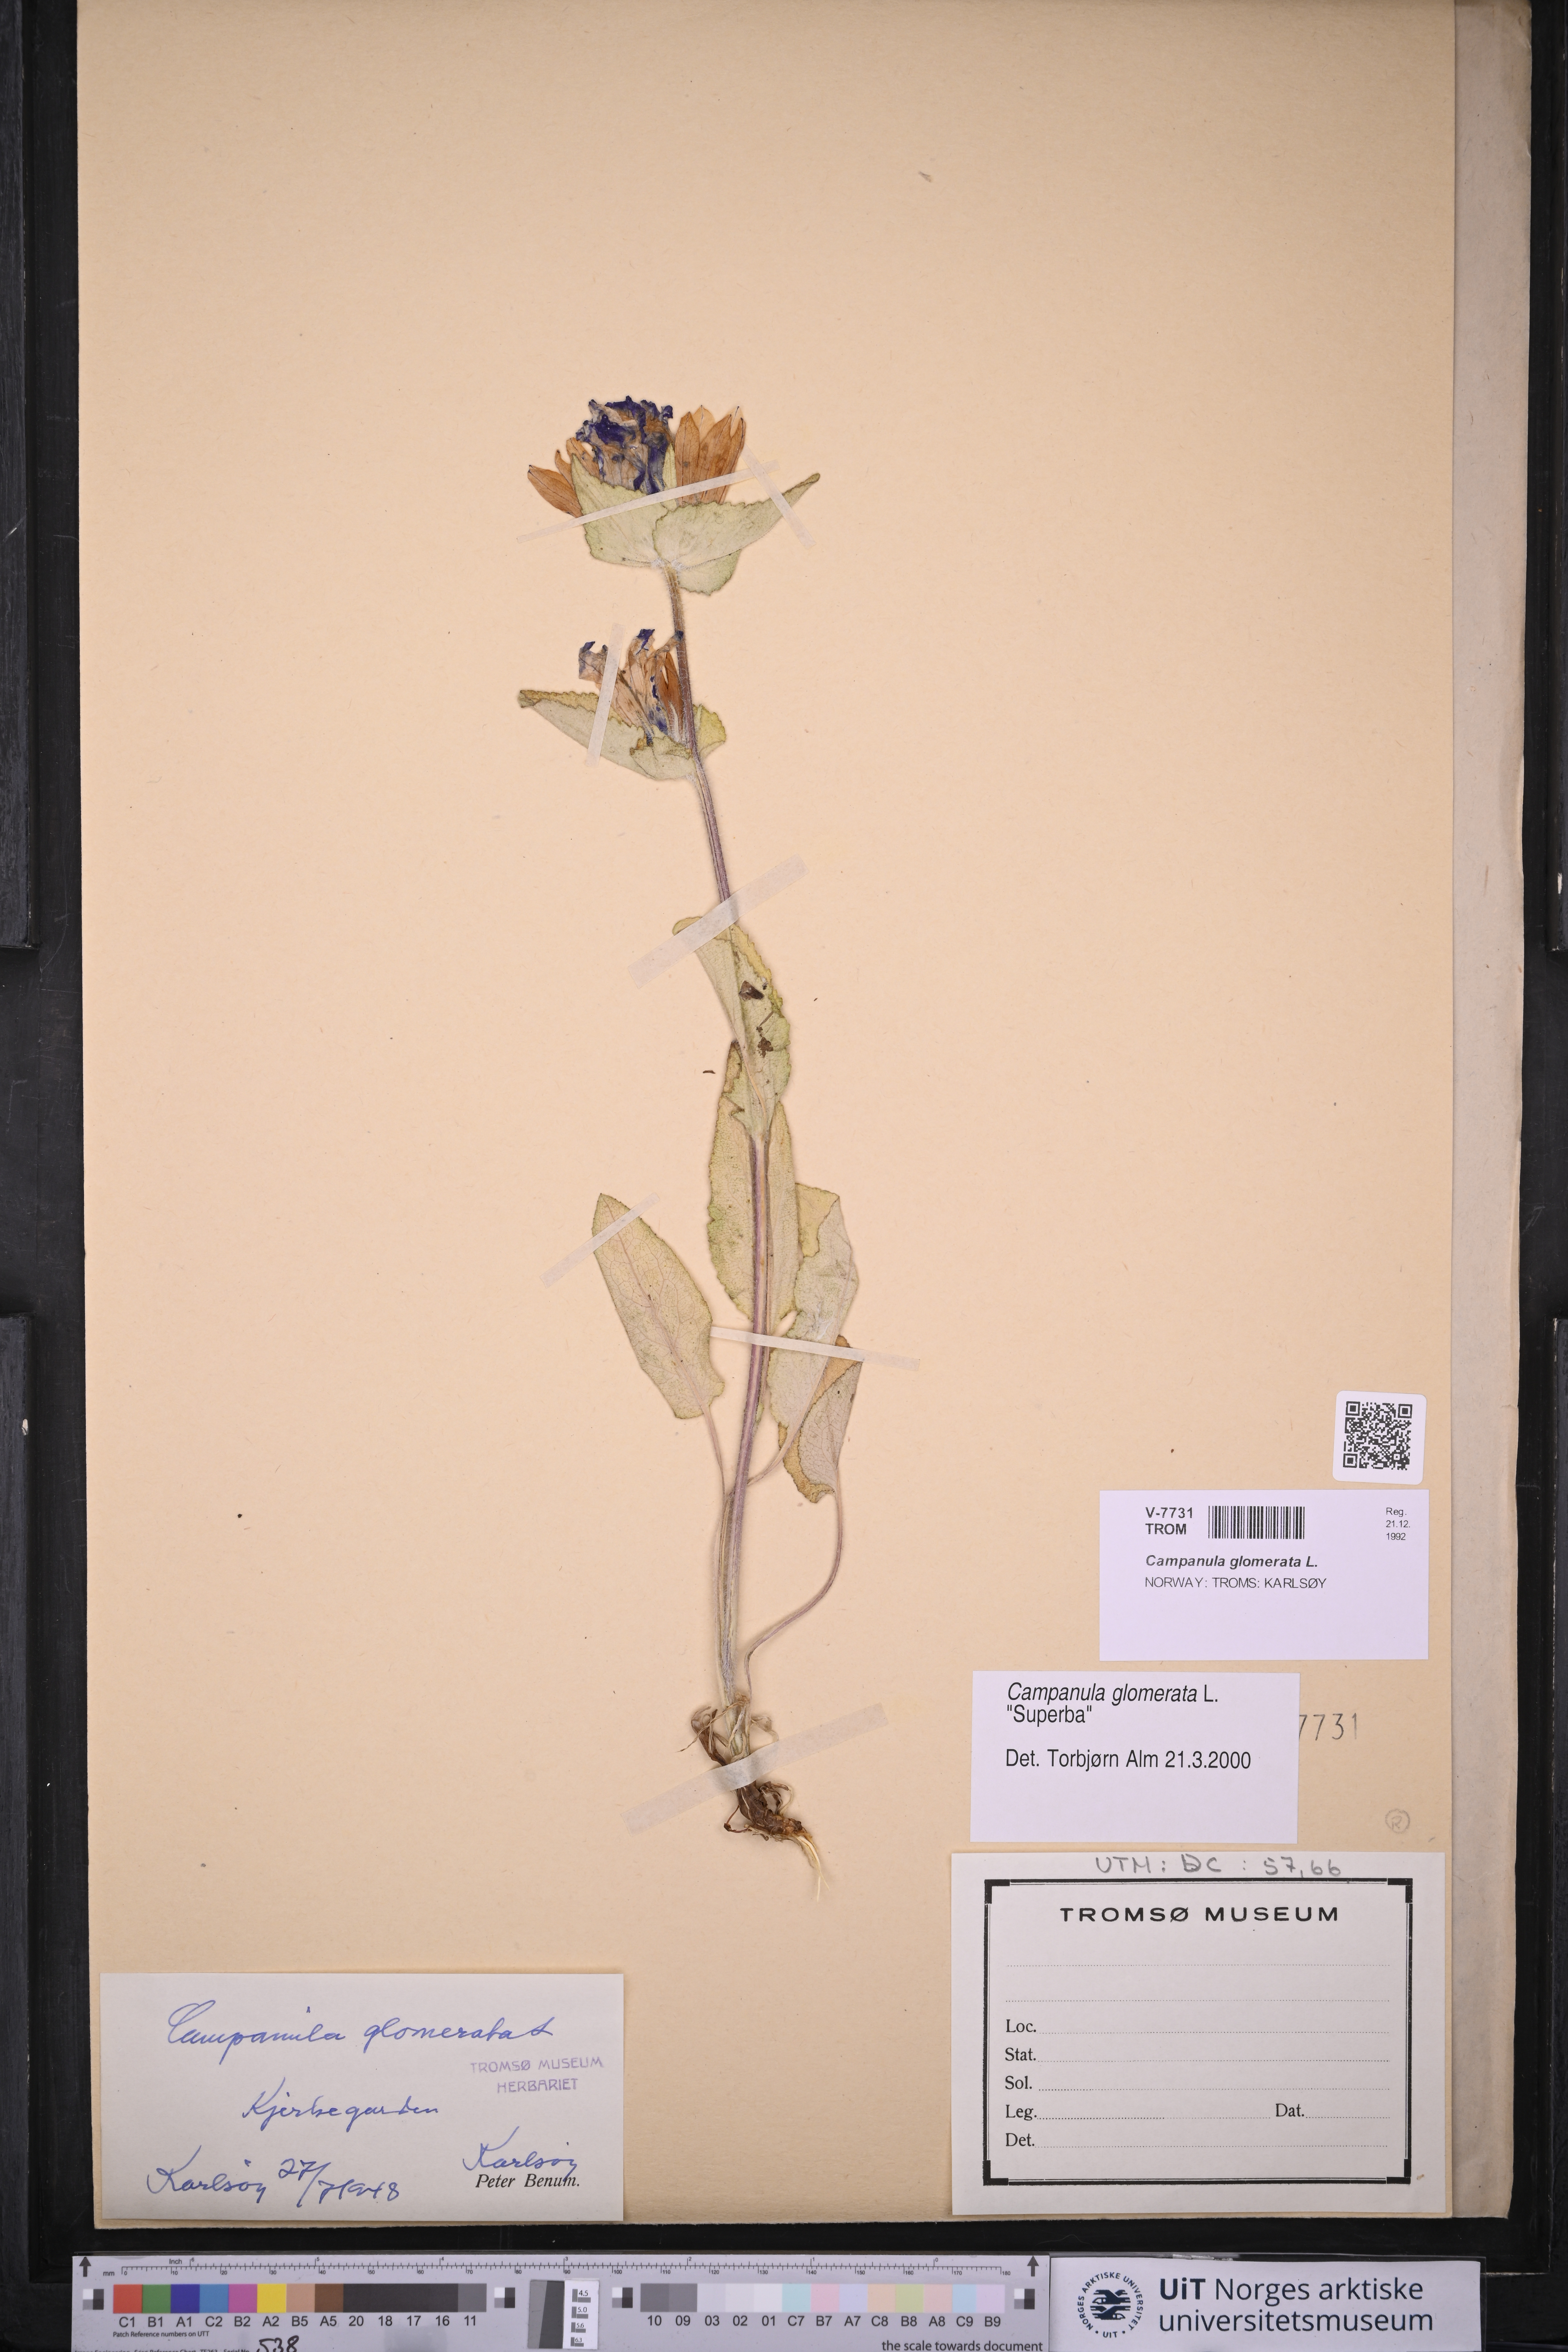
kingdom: Plantae
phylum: Tracheophyta
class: Magnoliopsida
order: Asterales
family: Campanulaceae
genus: Campanula
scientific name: Campanula glomerata
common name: Clustered bellflower
